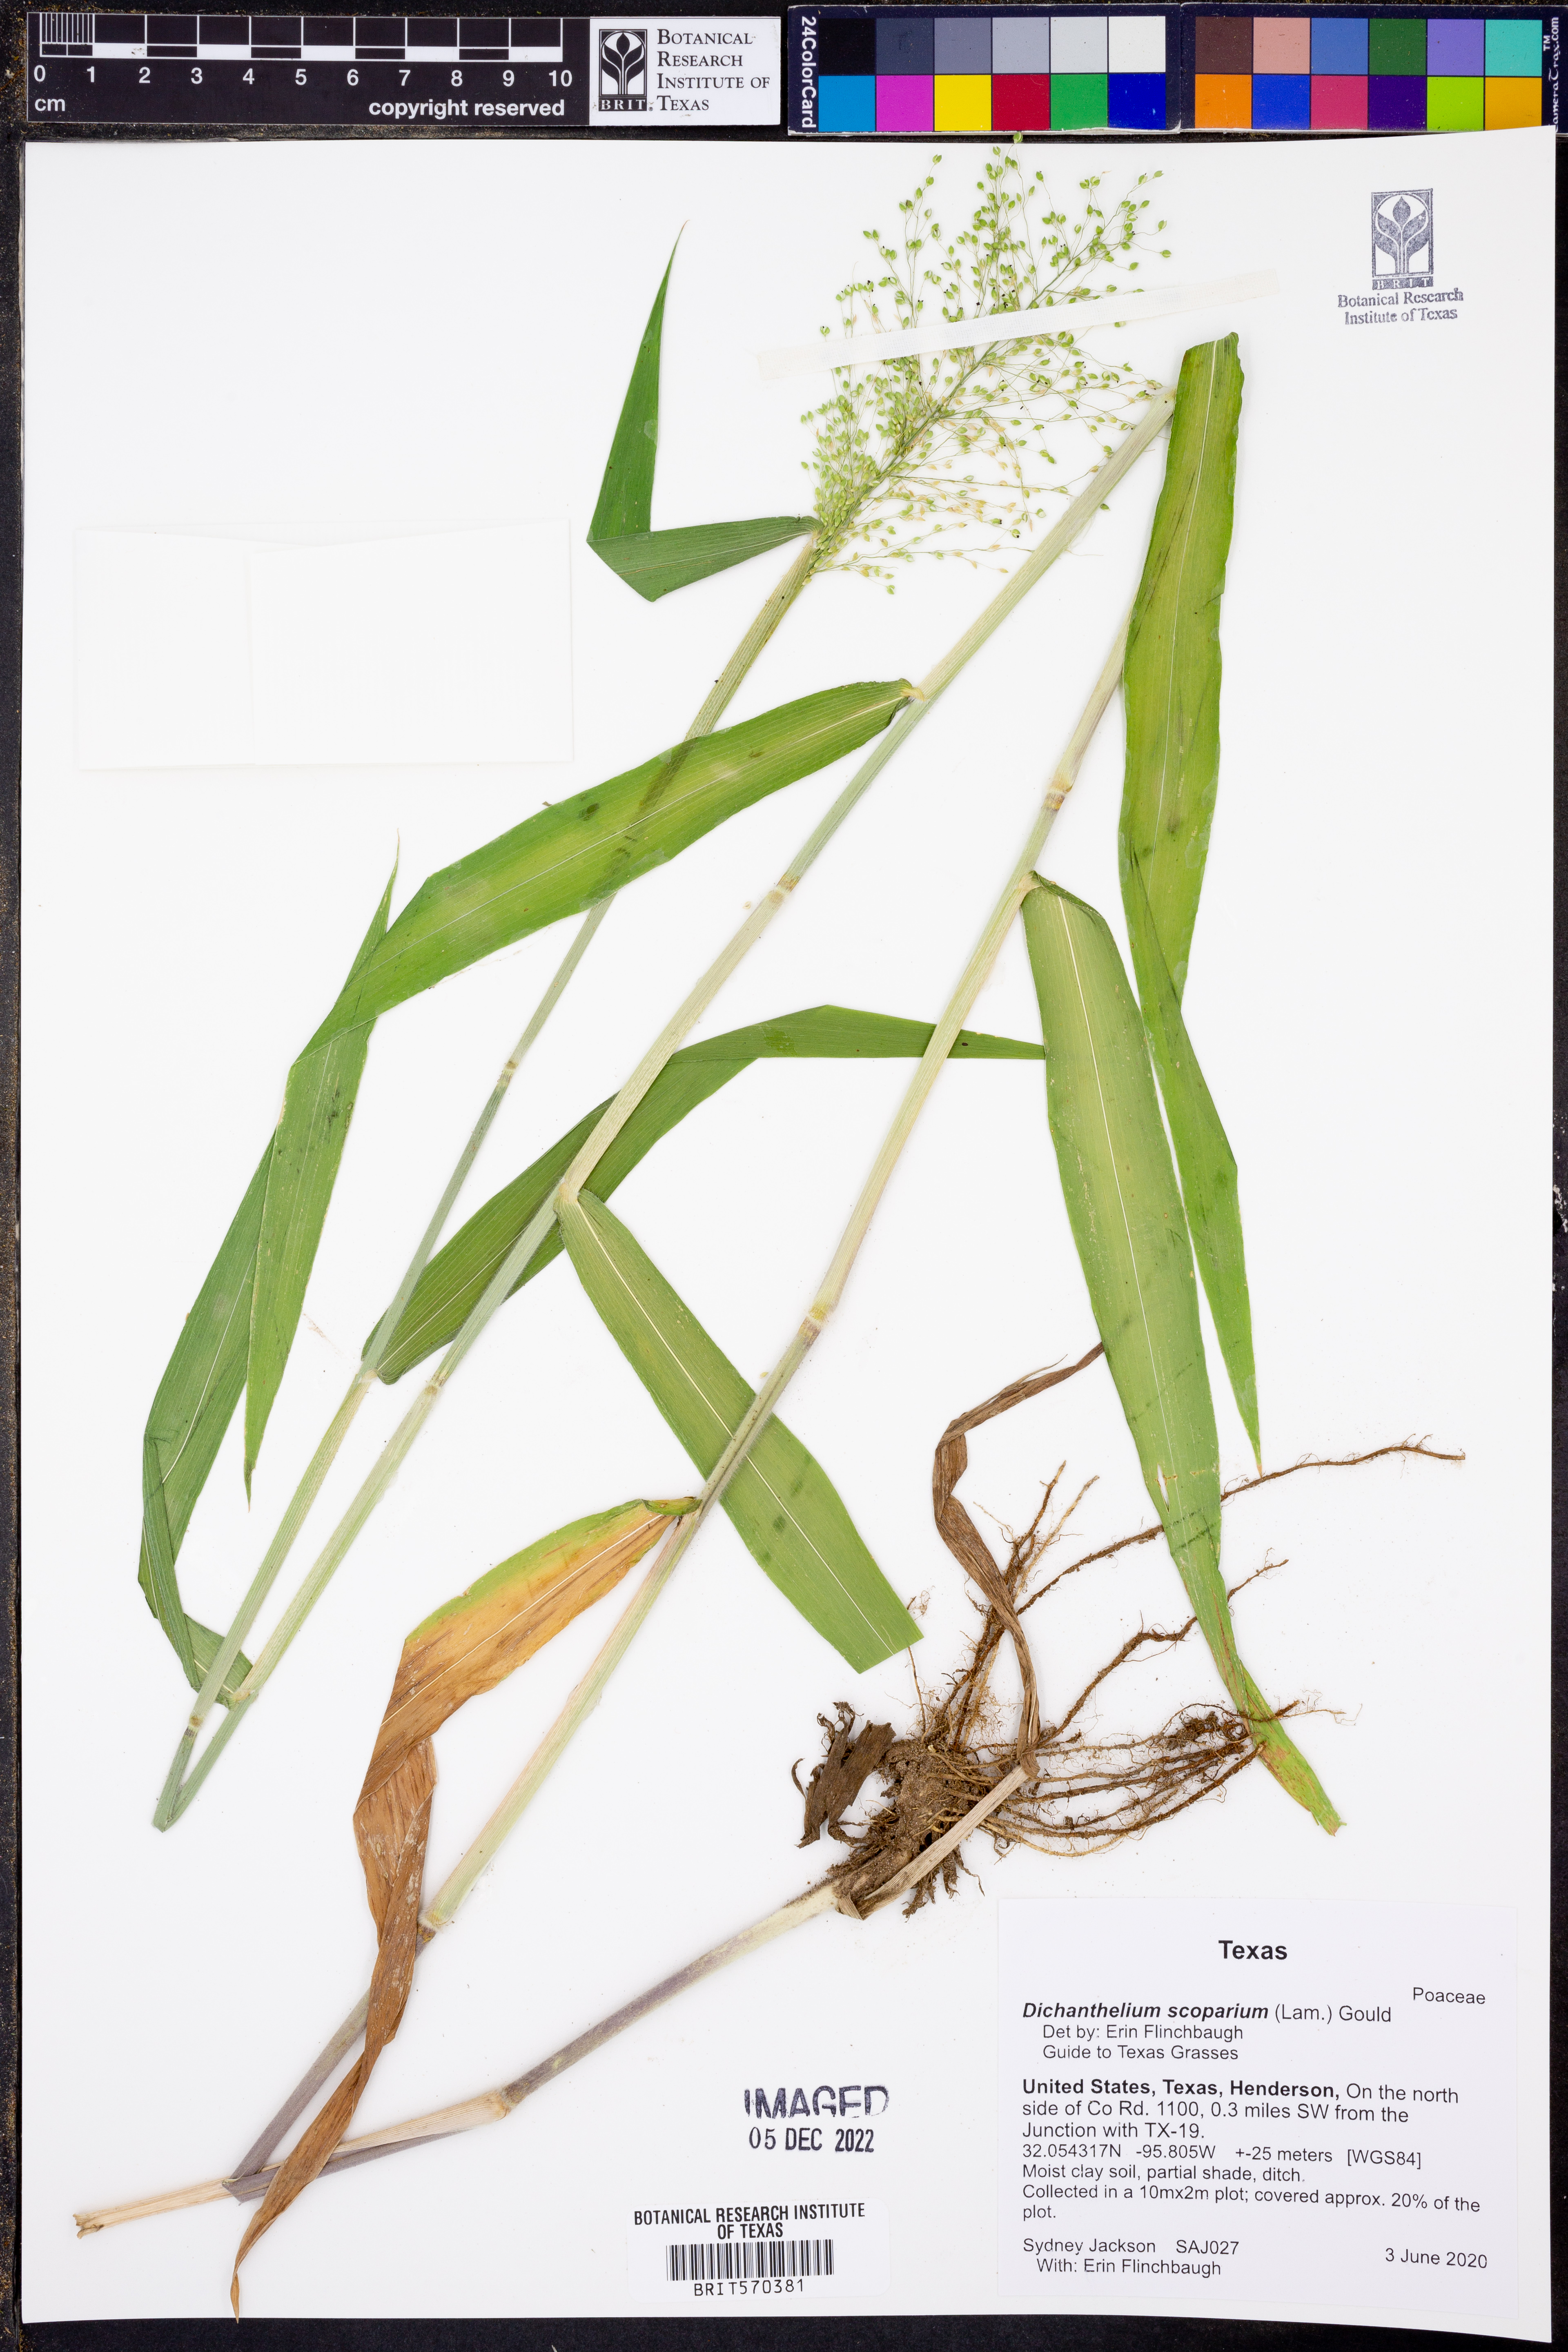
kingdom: Plantae
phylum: Tracheophyta
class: Liliopsida
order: Poales
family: Poaceae
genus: Dichanthelium
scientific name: Dichanthelium scoparium
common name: Velvety panic grass
